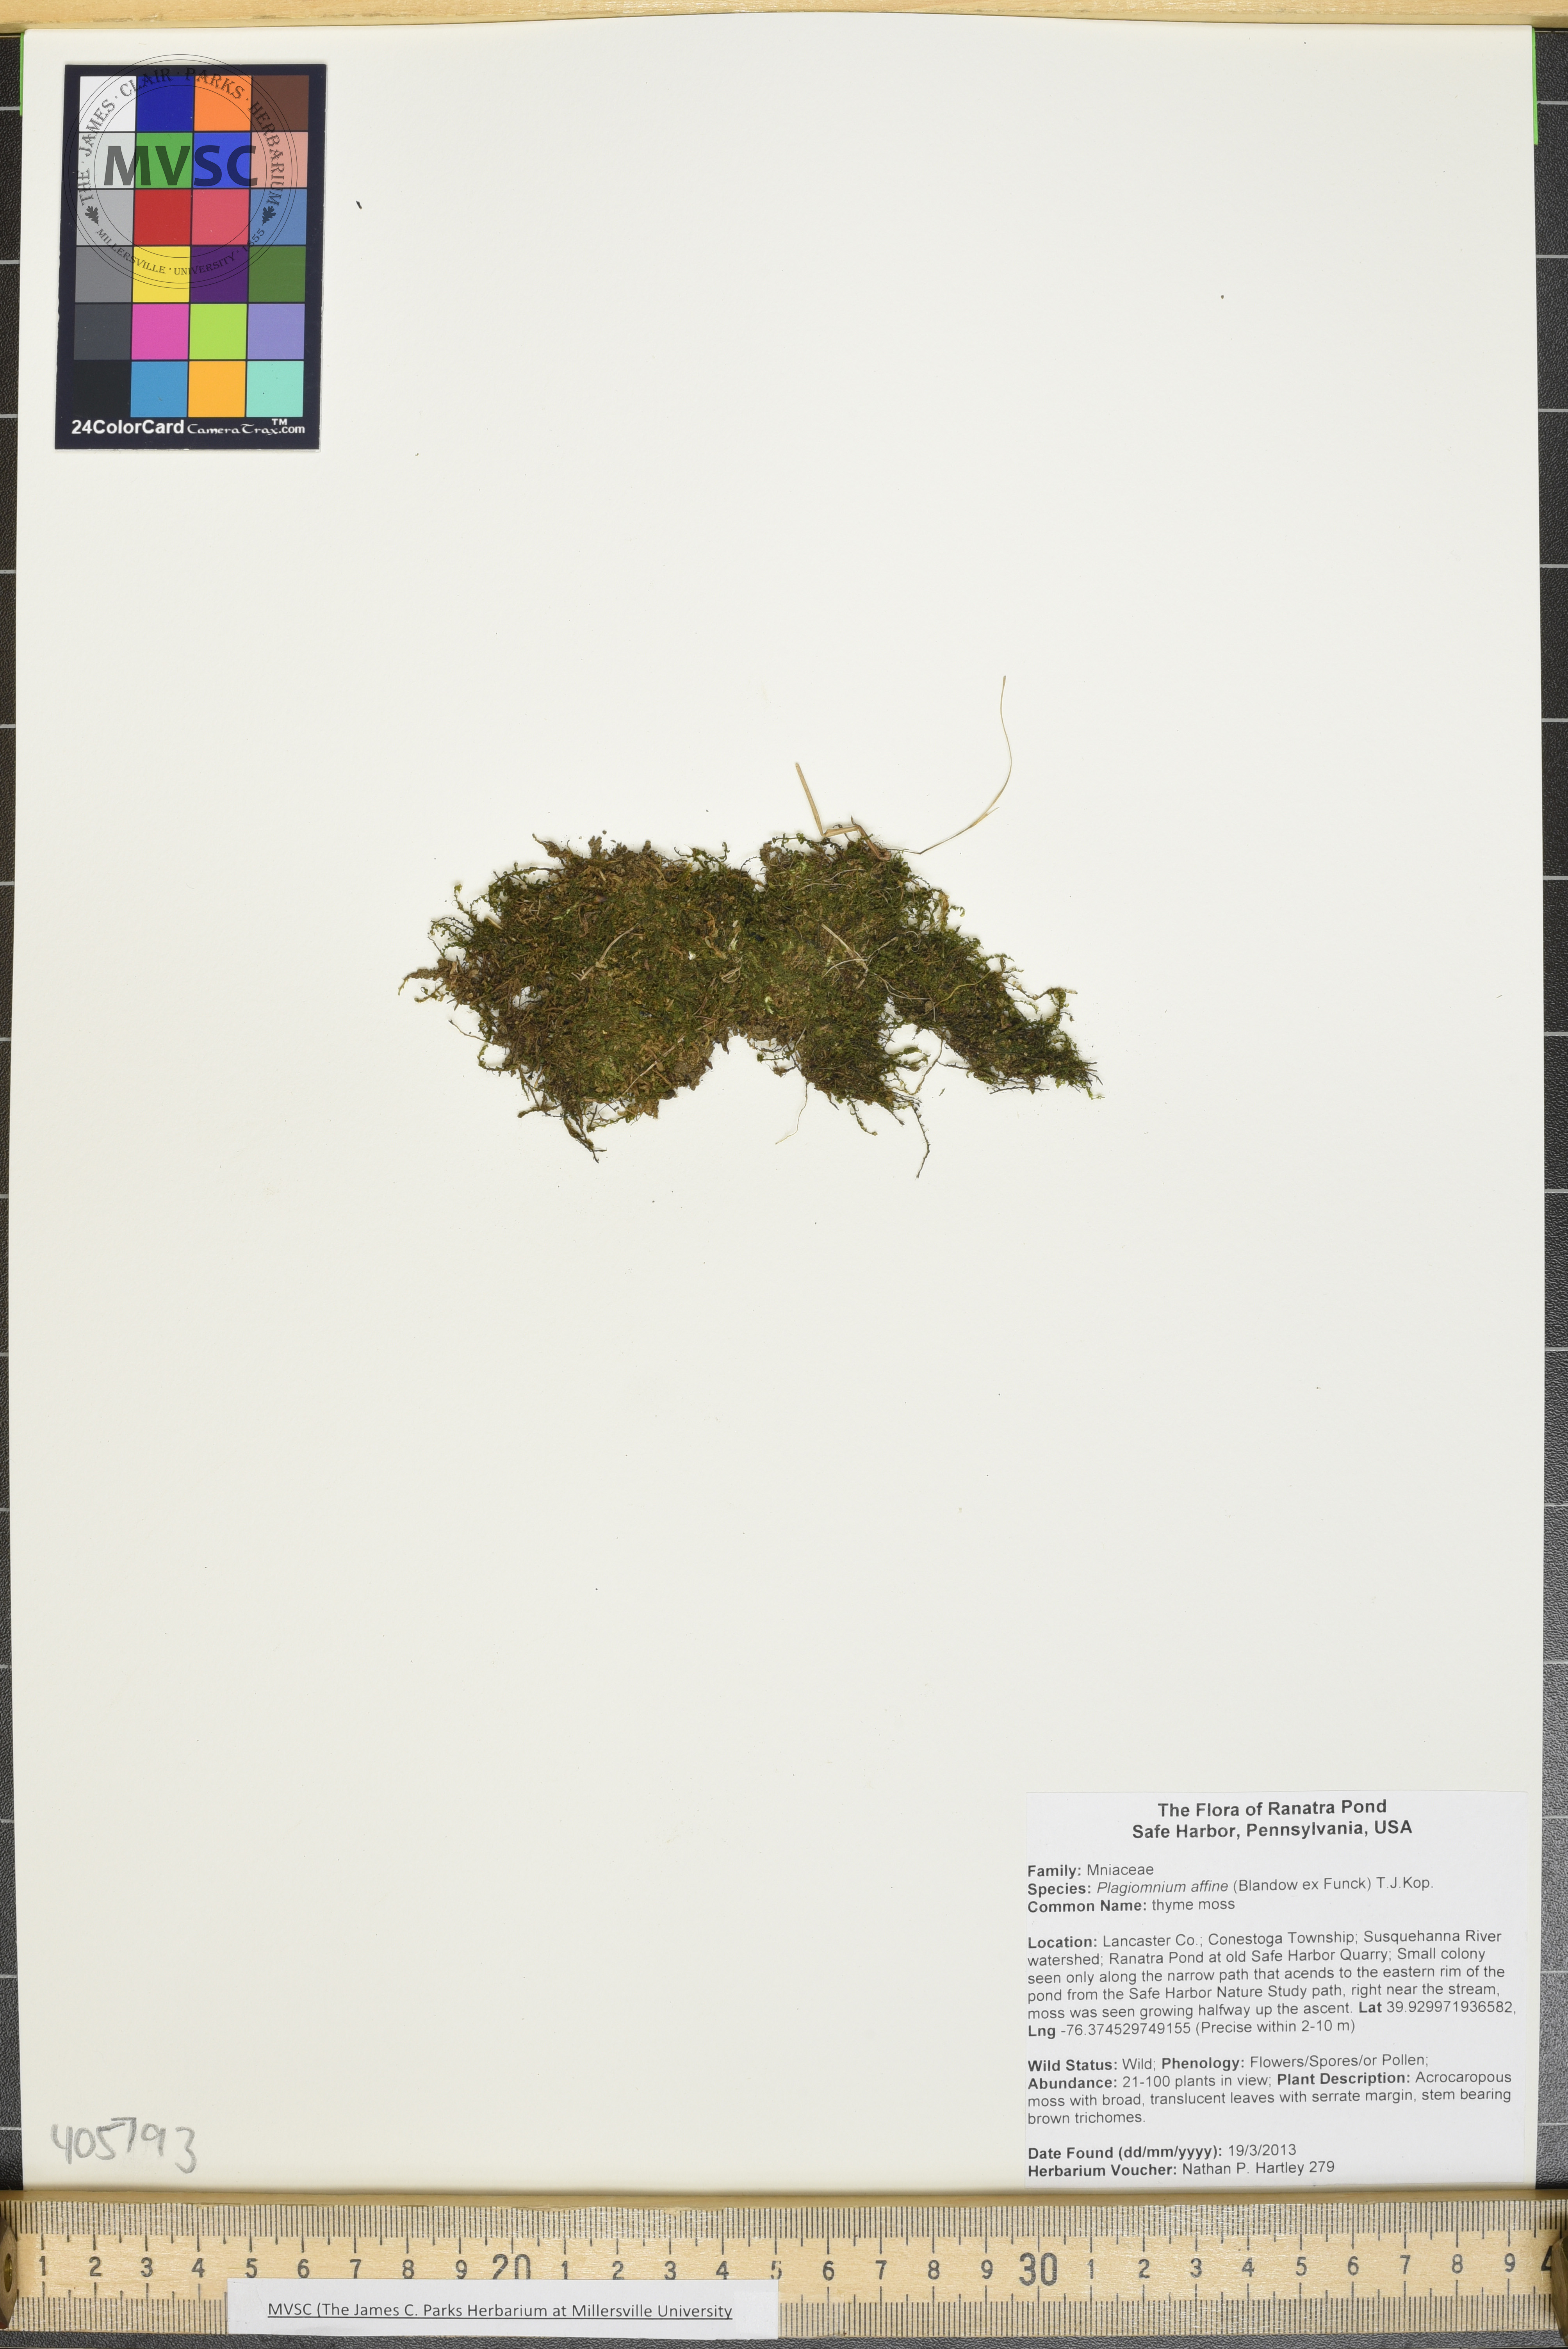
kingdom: Plantae
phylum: Bryophyta
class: Bryopsida
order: Bryales
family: Mniaceae
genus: Plagiomnium
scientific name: Plagiomnium ciliare
